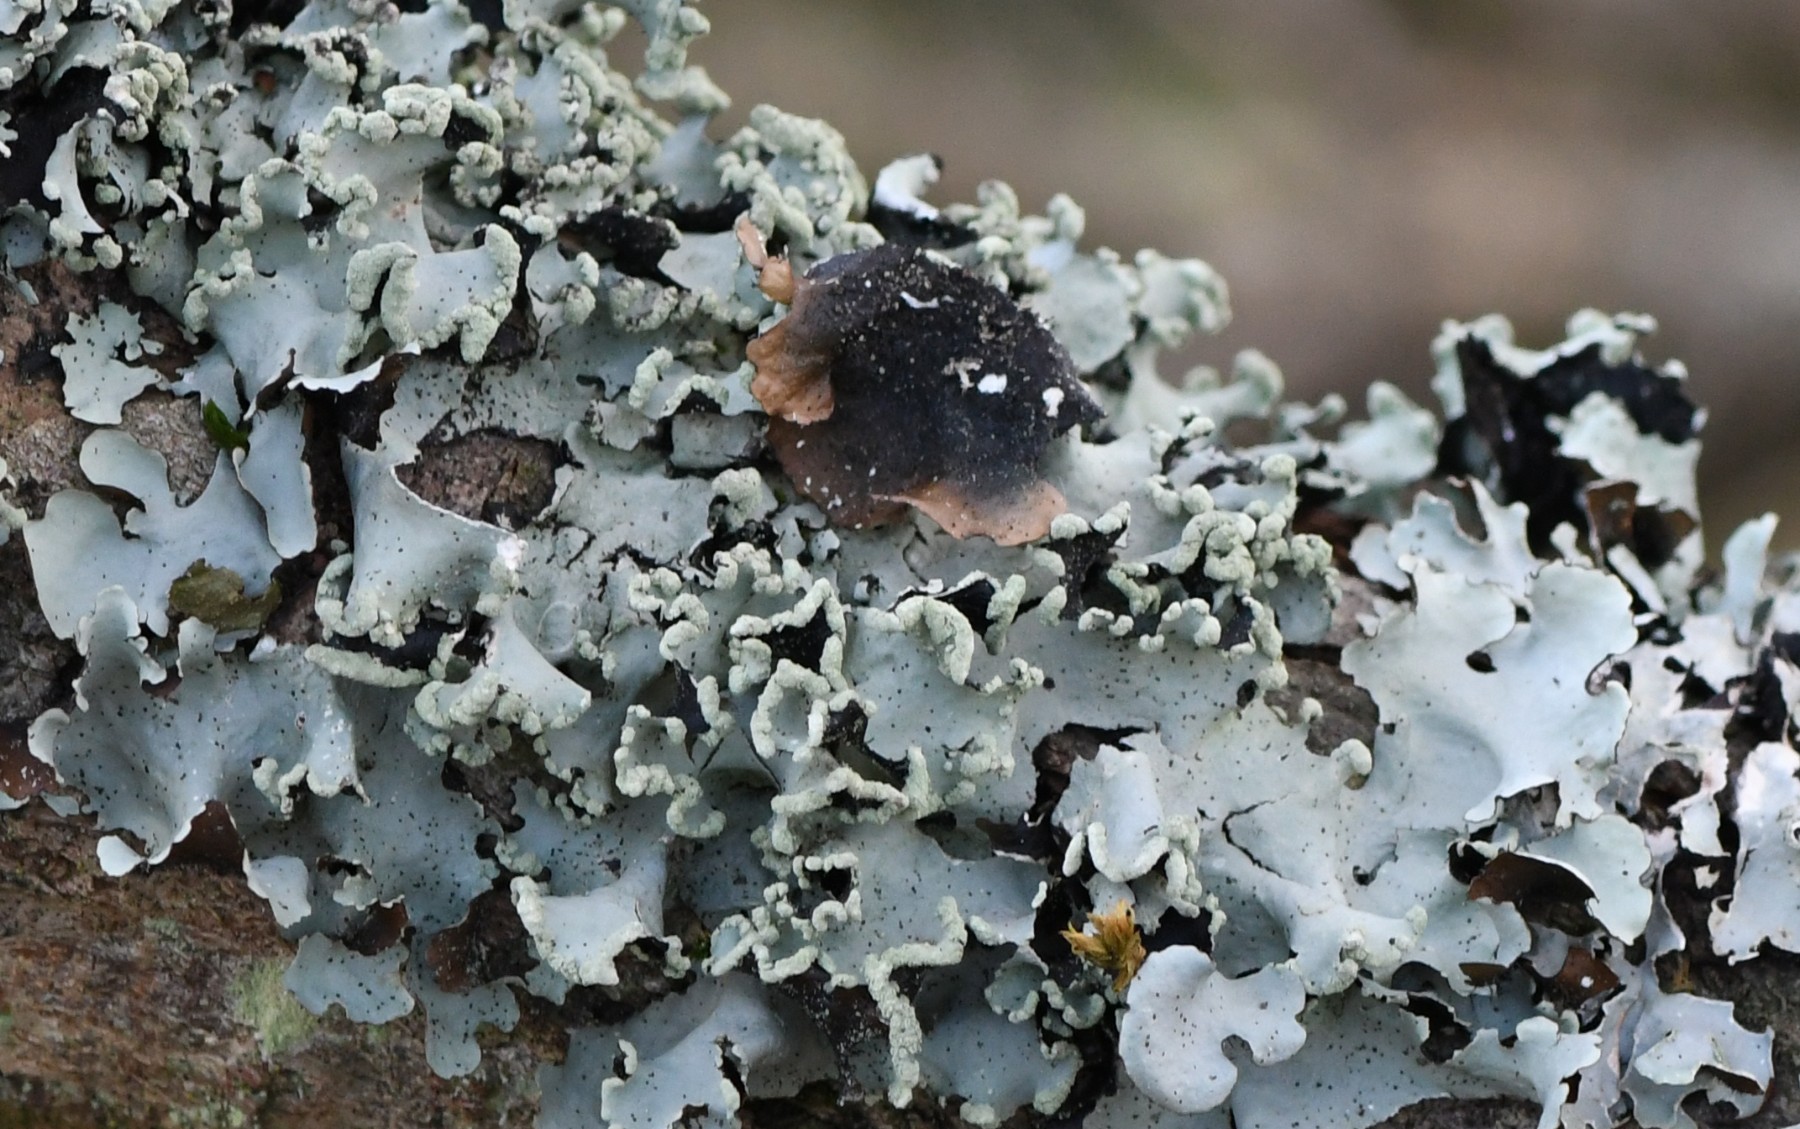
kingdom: Fungi
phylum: Ascomycota
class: Lecanoromycetes
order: Lecanorales
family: Parmeliaceae
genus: Parmotrema
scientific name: Parmotrema perlatum
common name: trådet skållav
